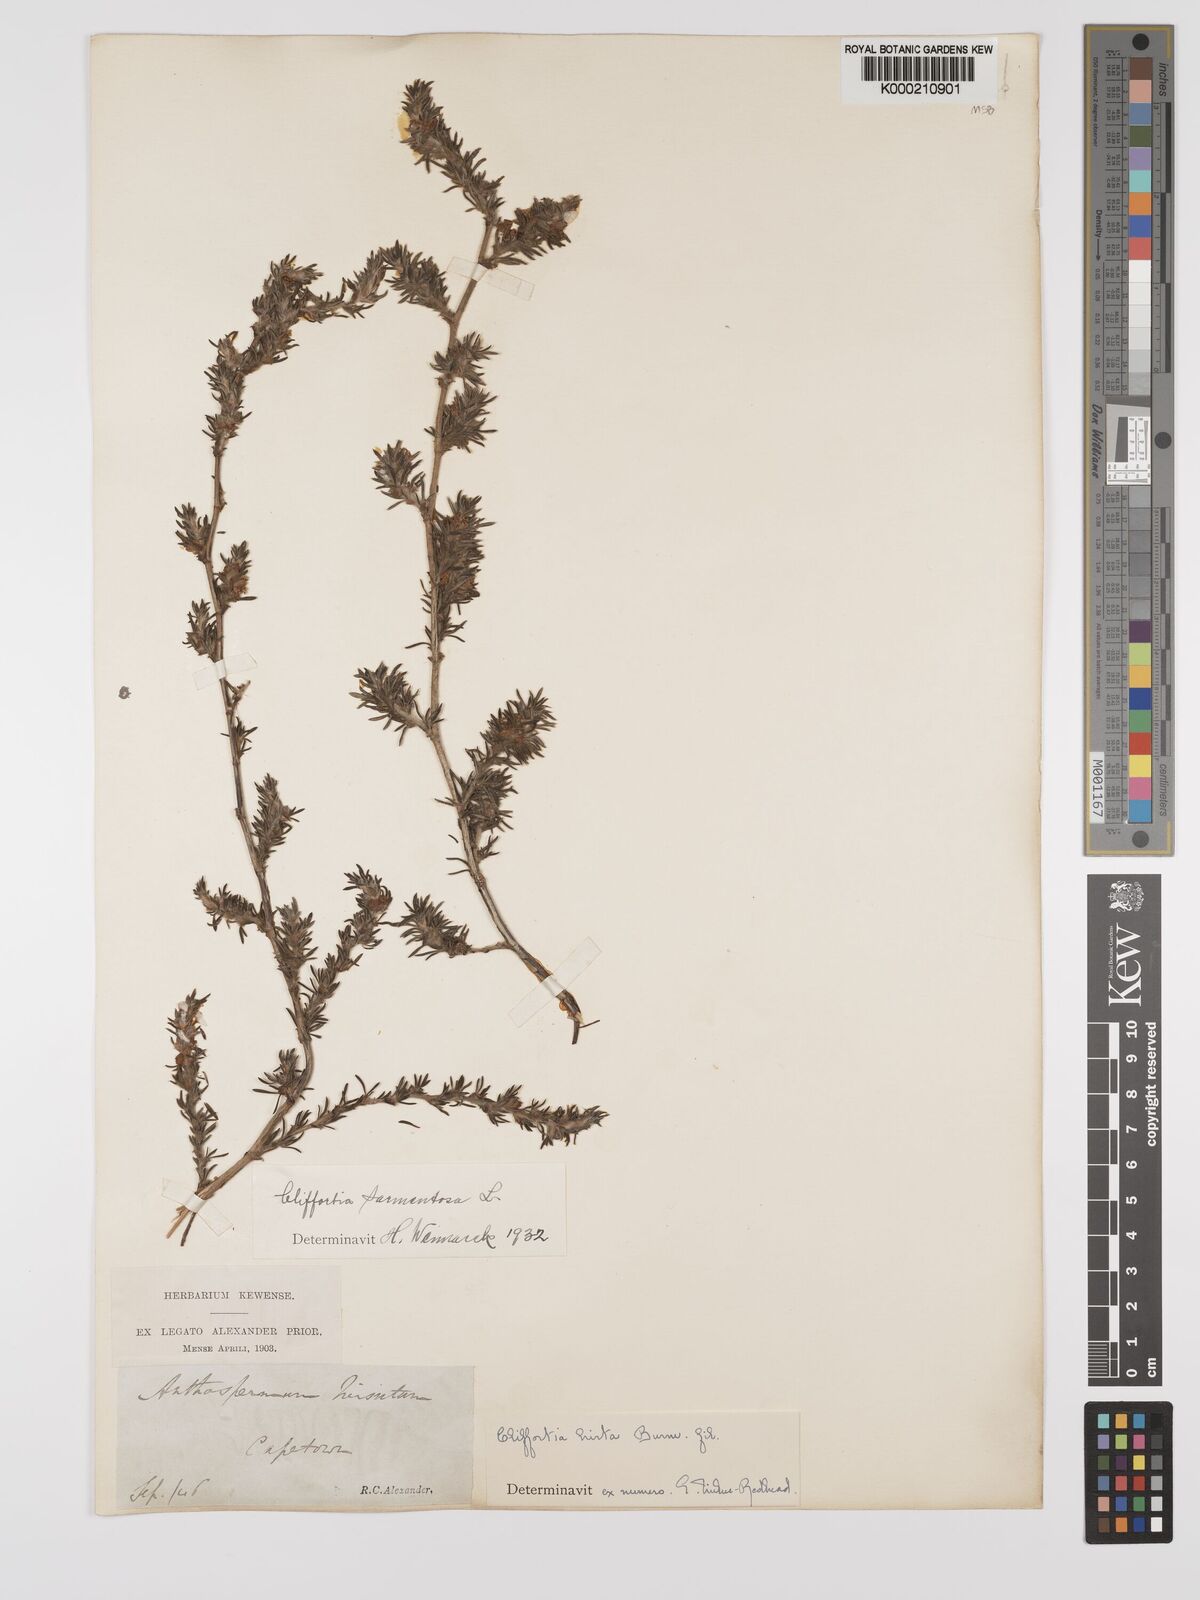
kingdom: Plantae
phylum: Tracheophyta
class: Magnoliopsida
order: Rosales
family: Rosaceae
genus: Cliffortia
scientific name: Cliffortia hirta
